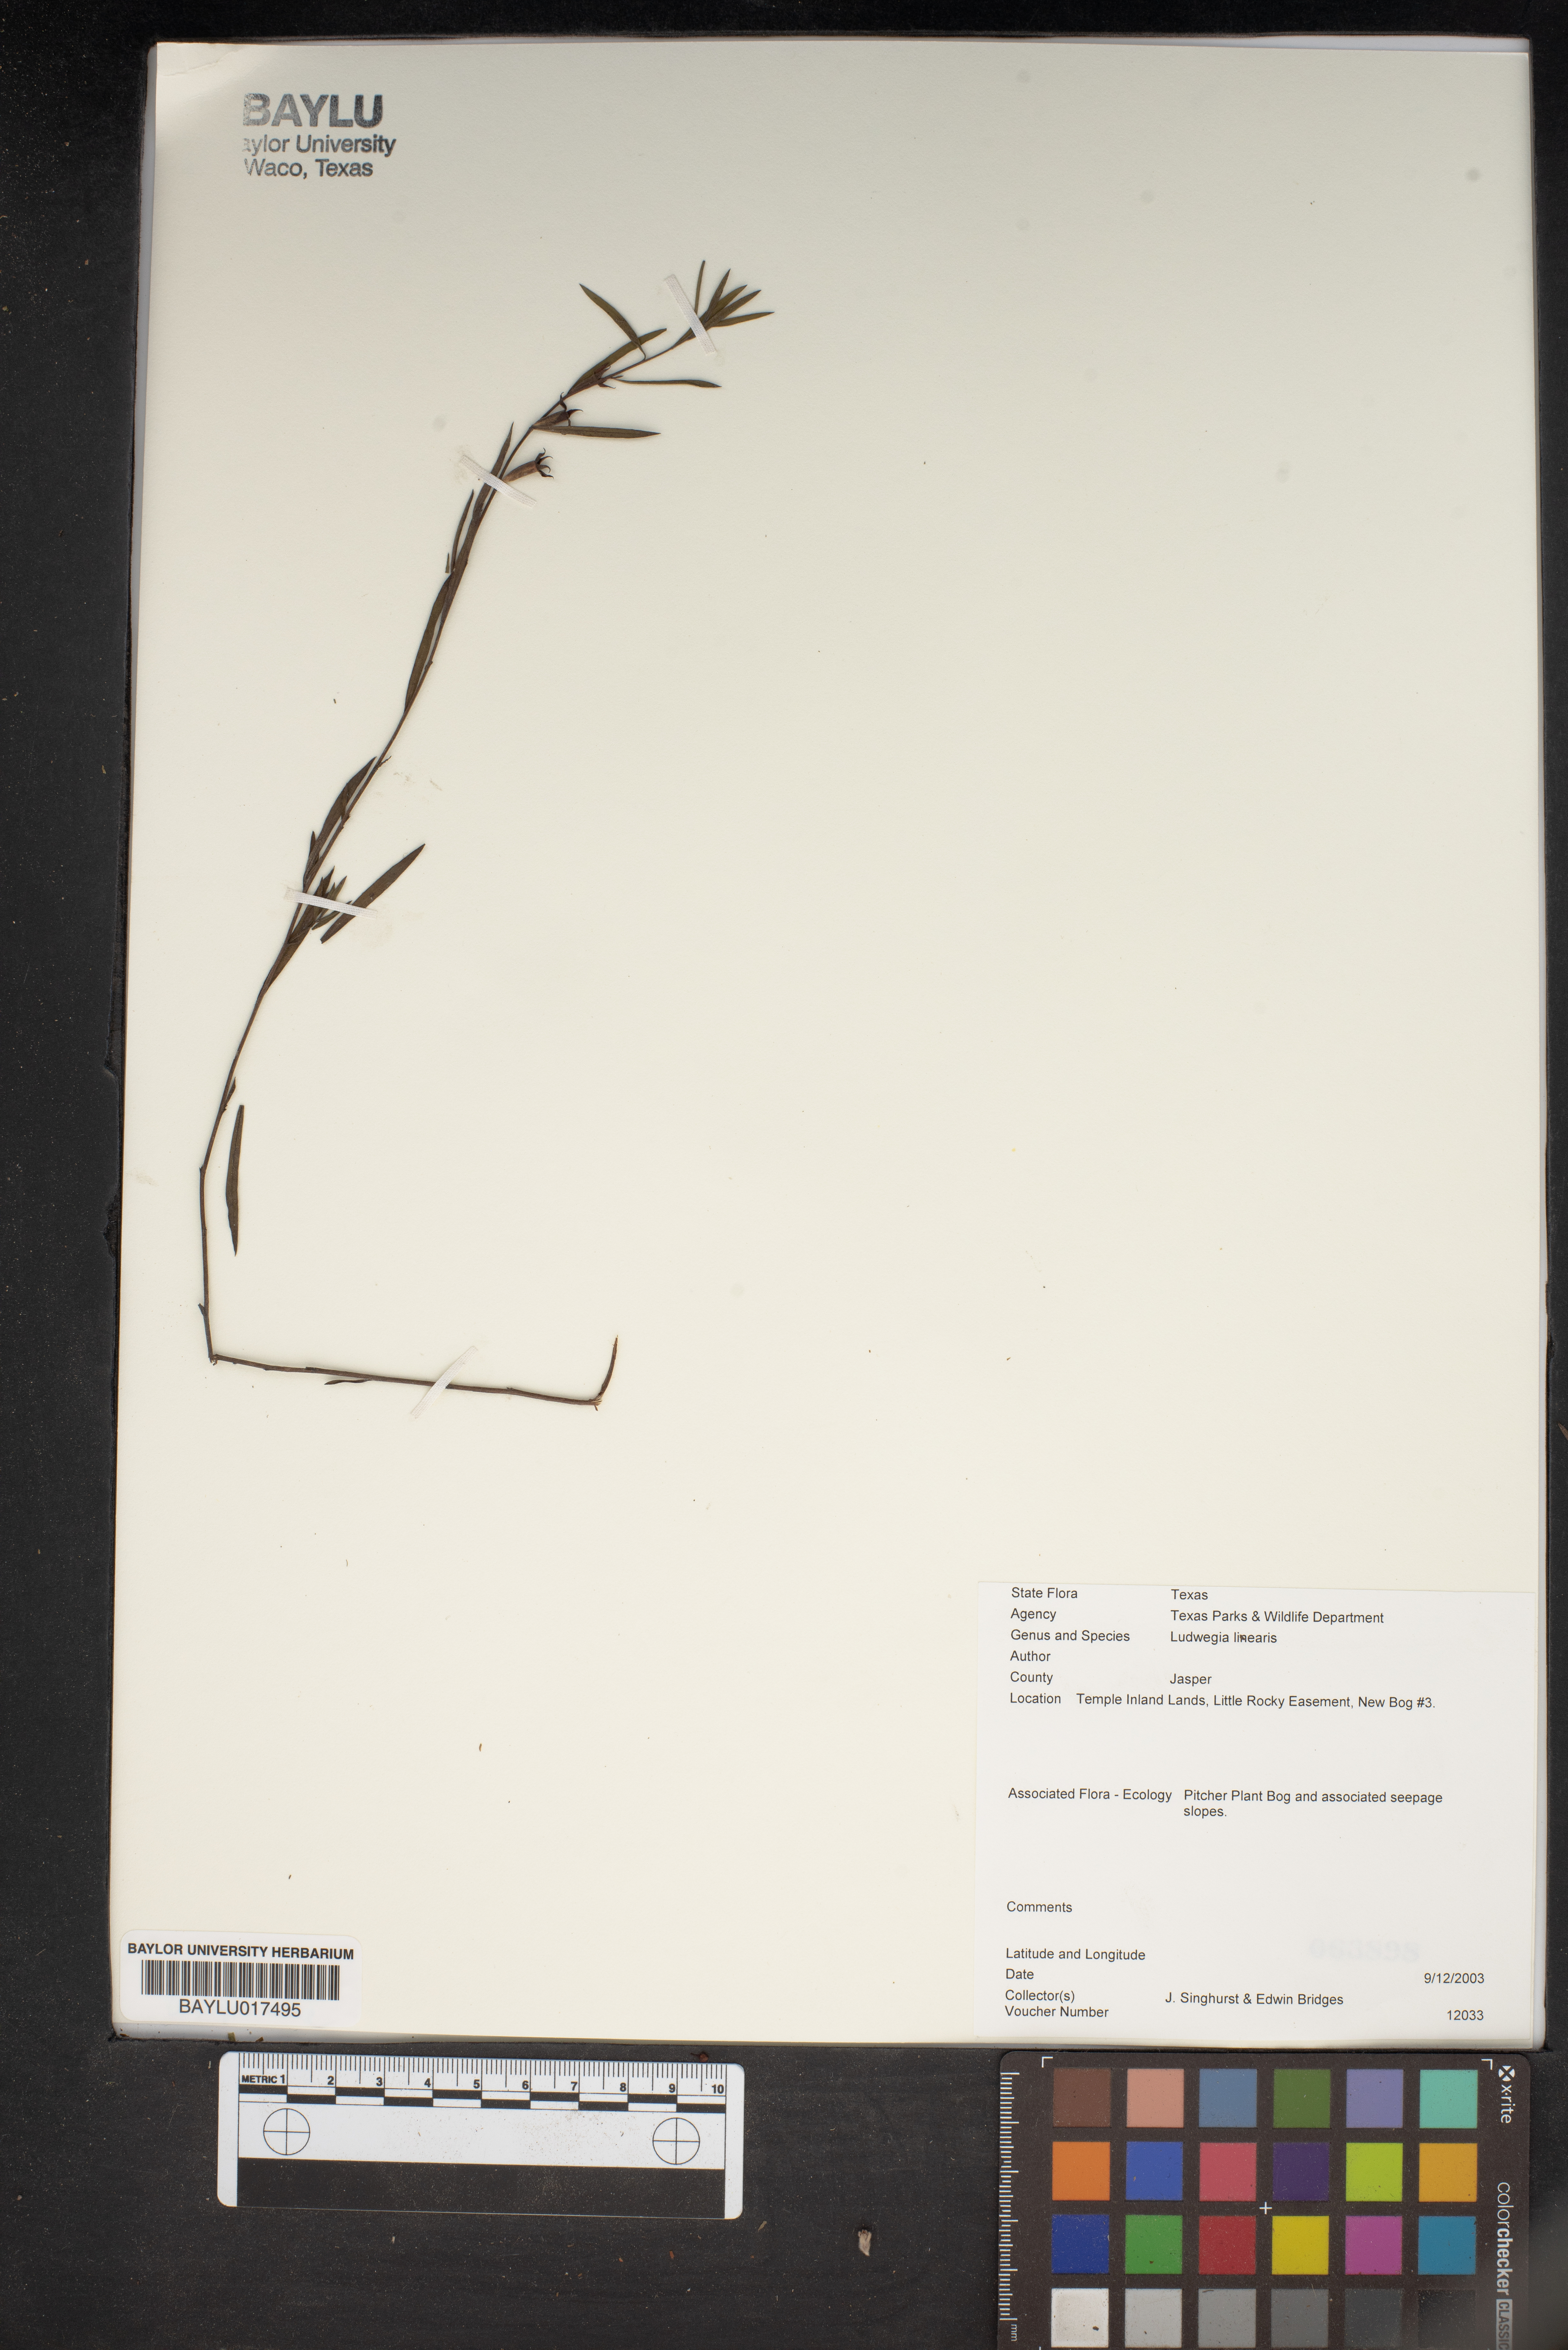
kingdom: Plantae
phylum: Tracheophyta
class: Magnoliopsida
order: Myrtales
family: Onagraceae
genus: Ludwigia
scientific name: Ludwigia linearis
